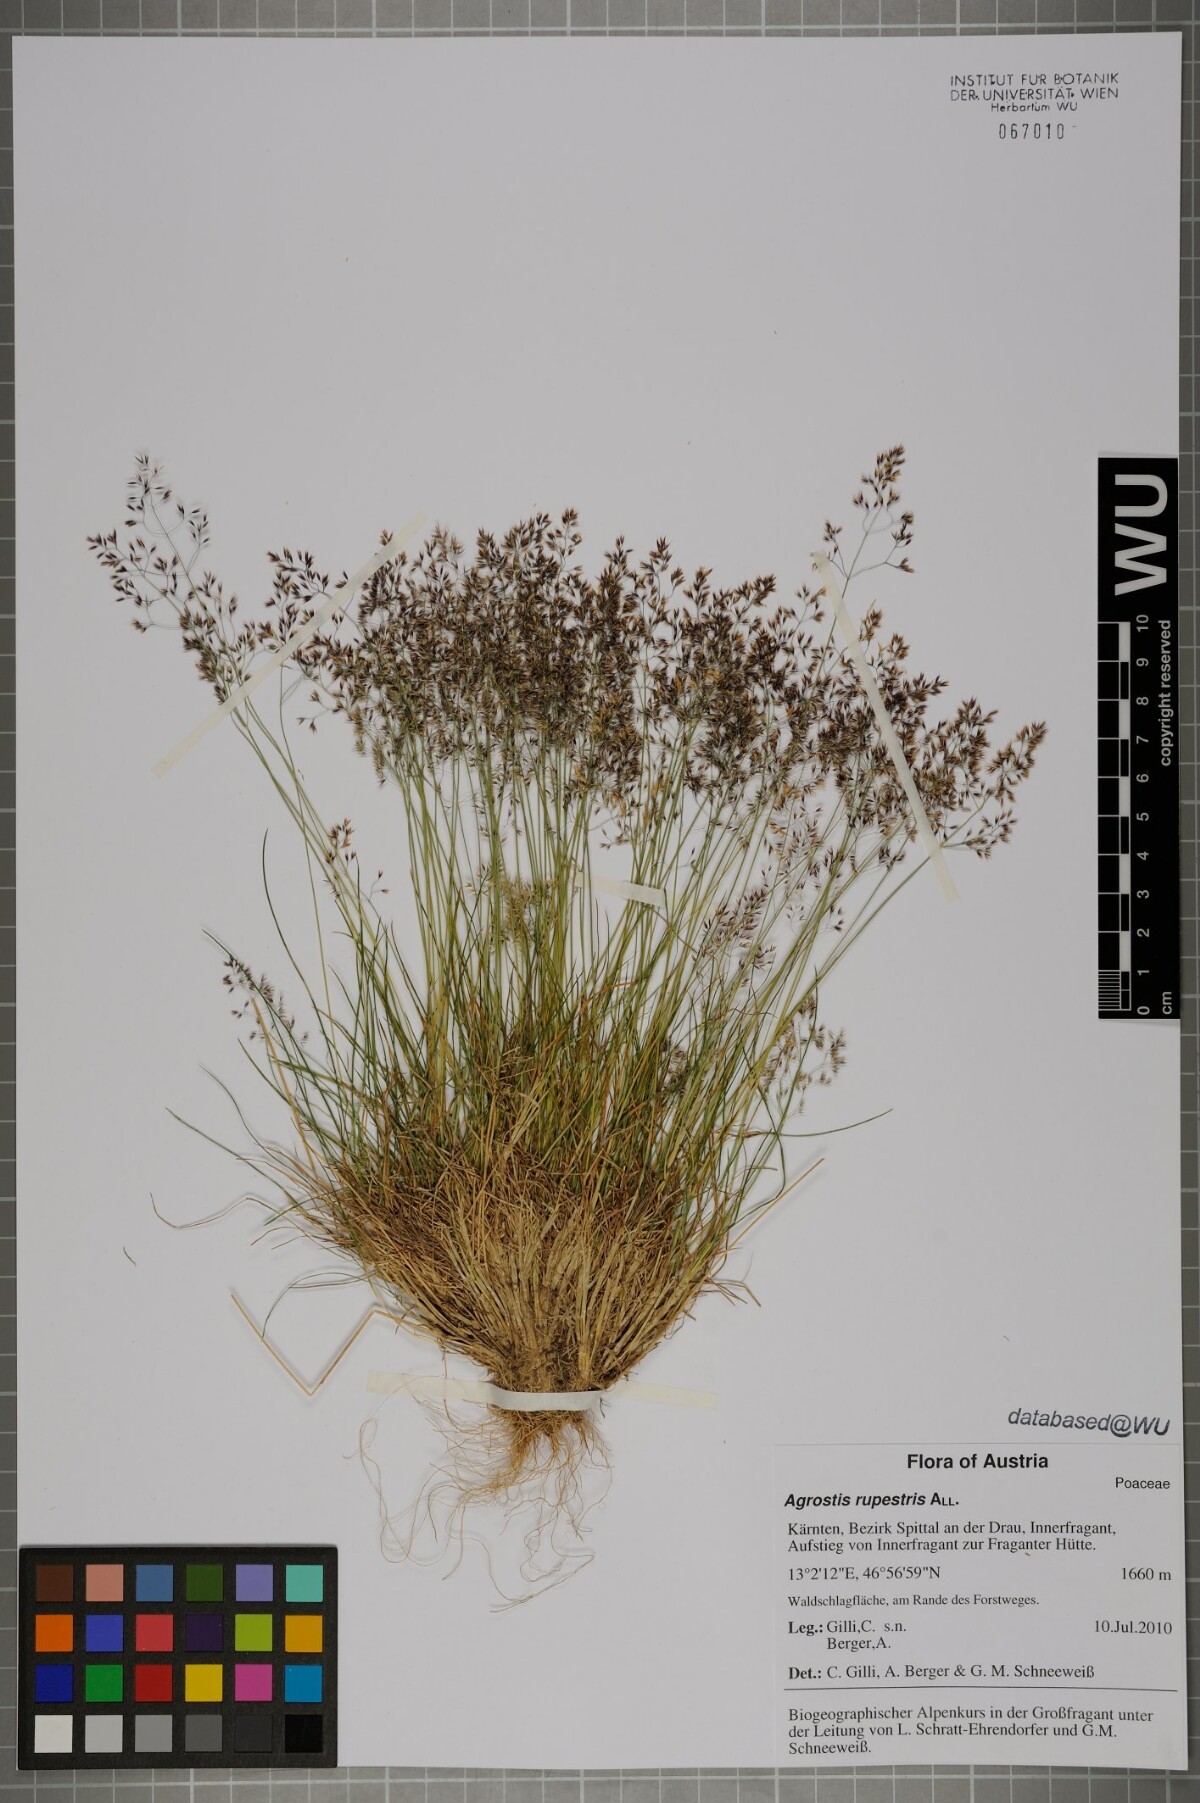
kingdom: Plantae
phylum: Tracheophyta
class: Liliopsida
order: Poales
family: Poaceae
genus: Agrostis
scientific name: Agrostis rupestris
